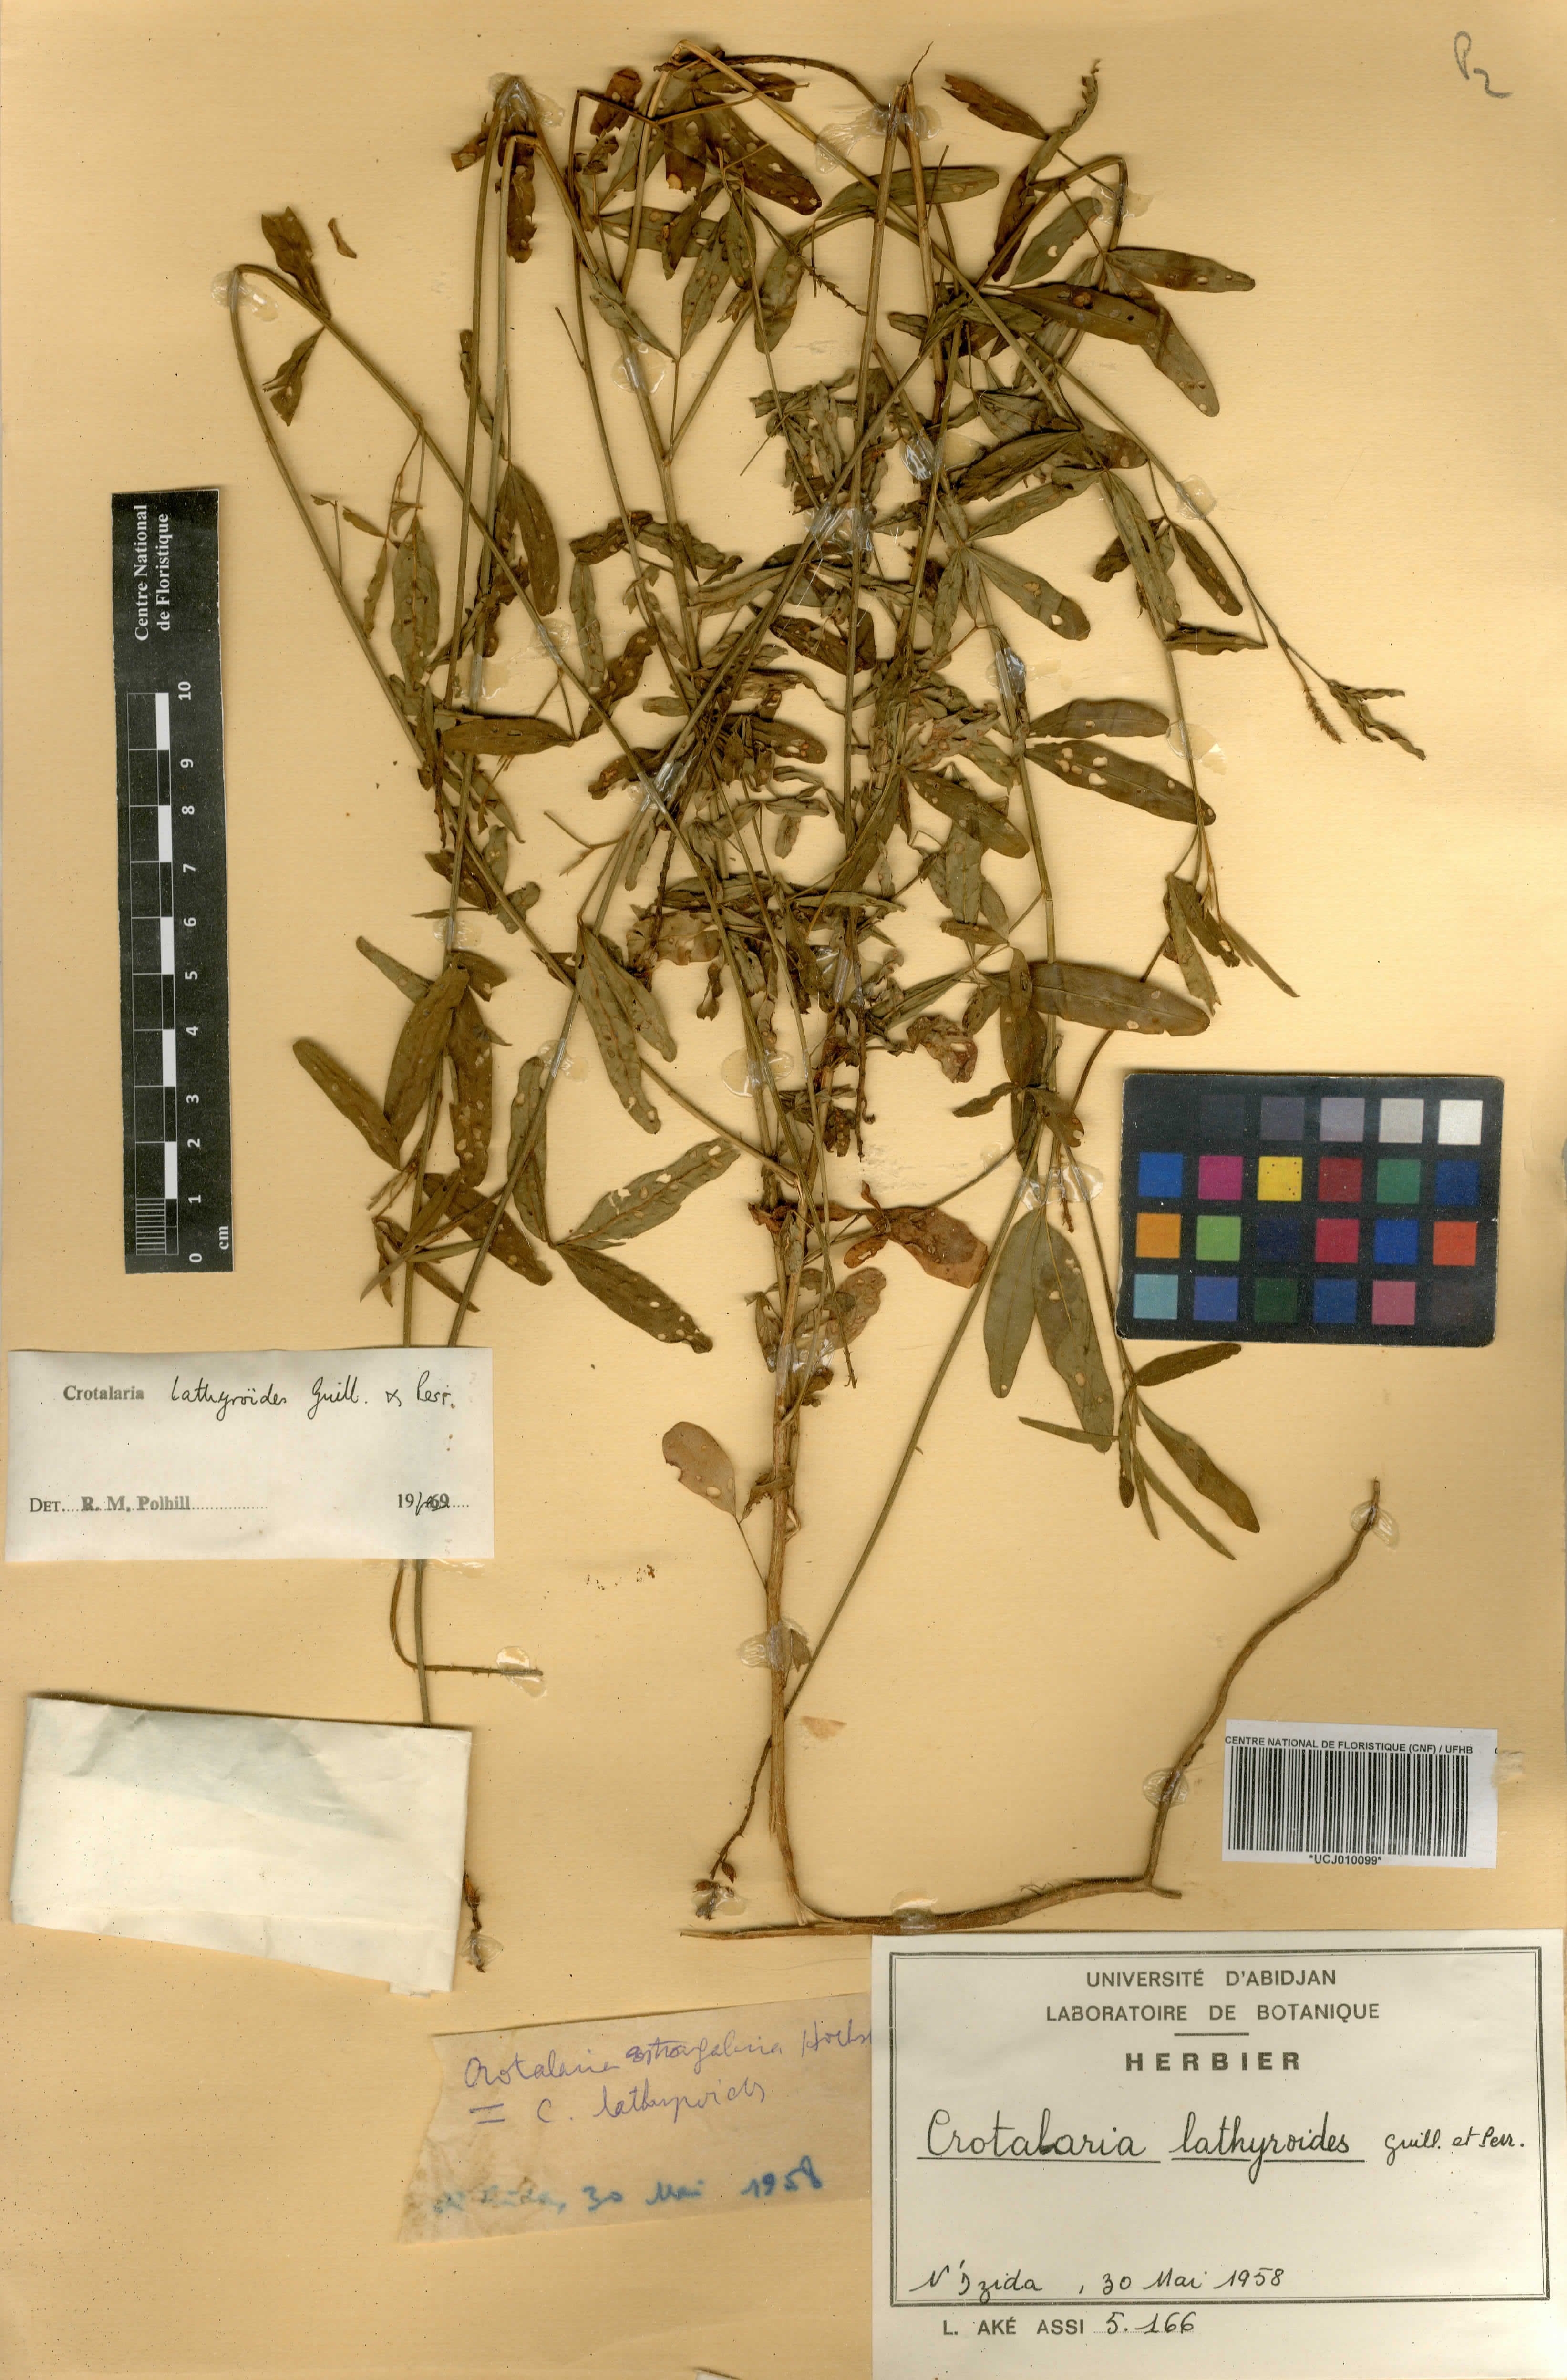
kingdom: Plantae
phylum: Tracheophyta
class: Magnoliopsida
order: Fabales
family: Fabaceae
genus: Crotalaria
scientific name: Crotalaria lathyroides
